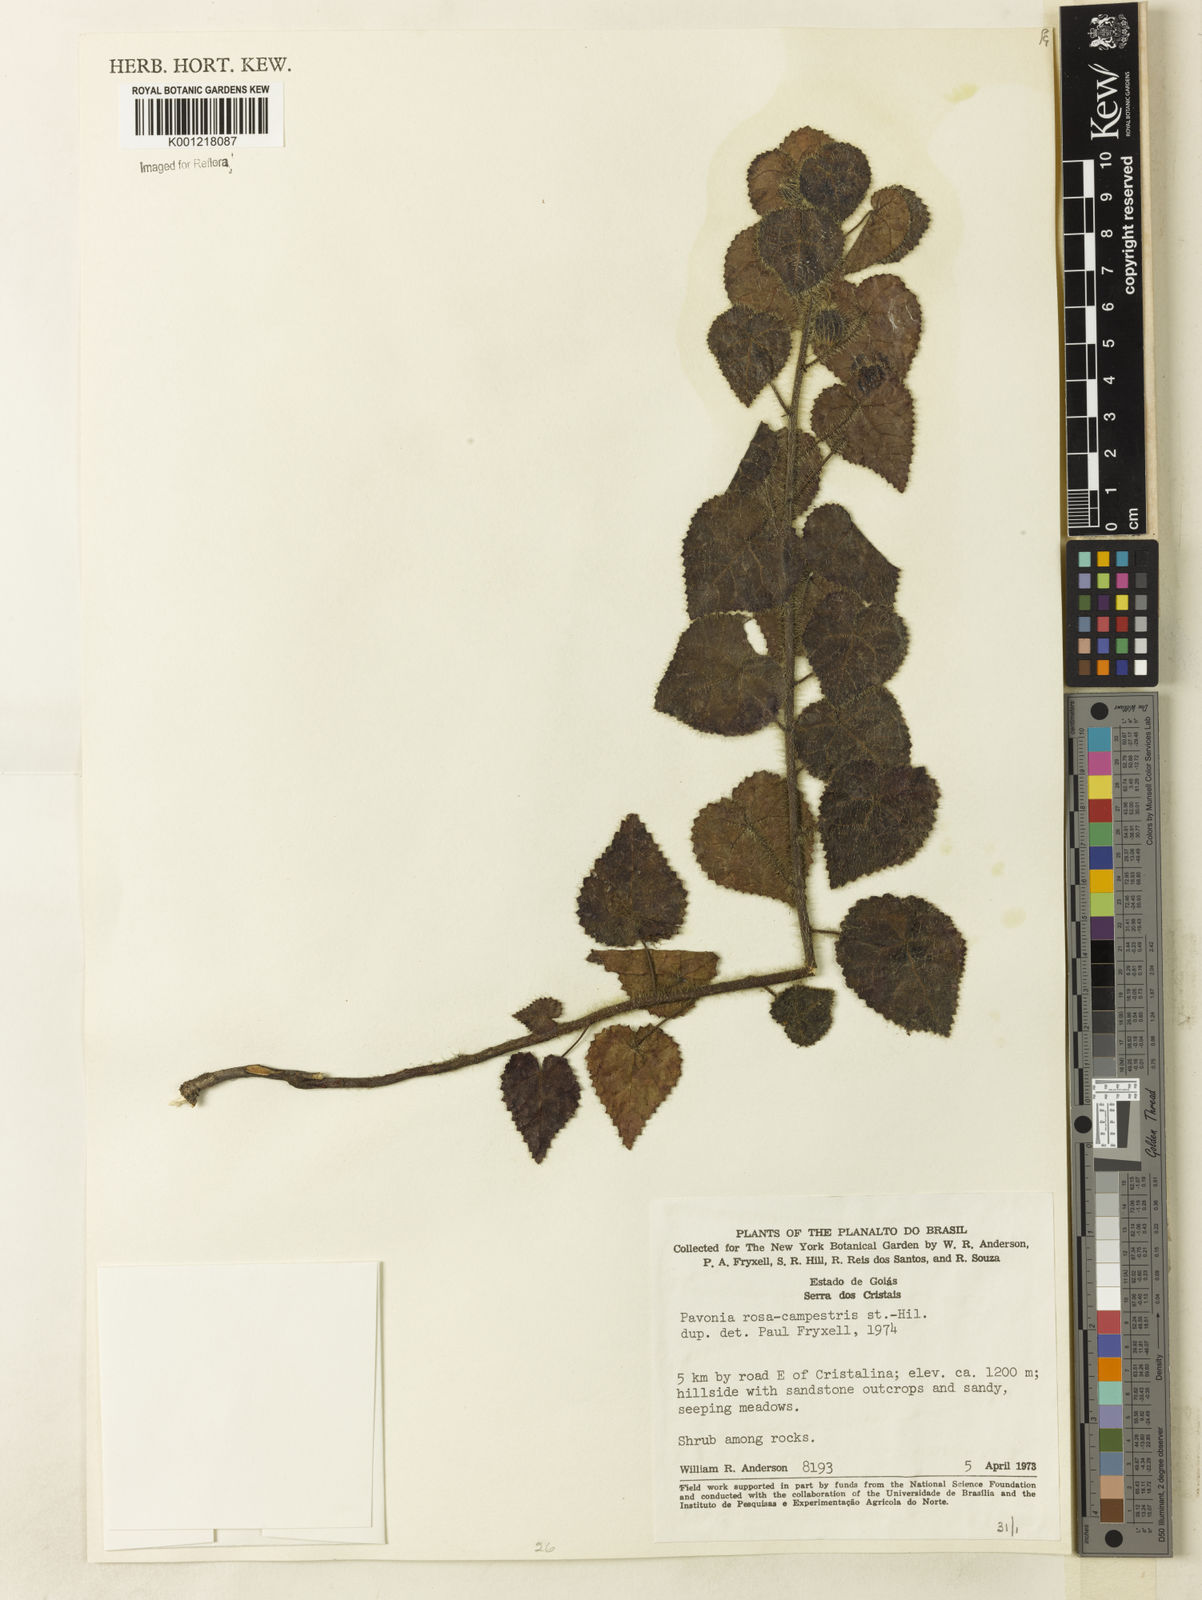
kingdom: Plantae
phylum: Tracheophyta
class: Magnoliopsida
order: Malvales
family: Malvaceae
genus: Pavonia
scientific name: Pavonia rosa-campestris
